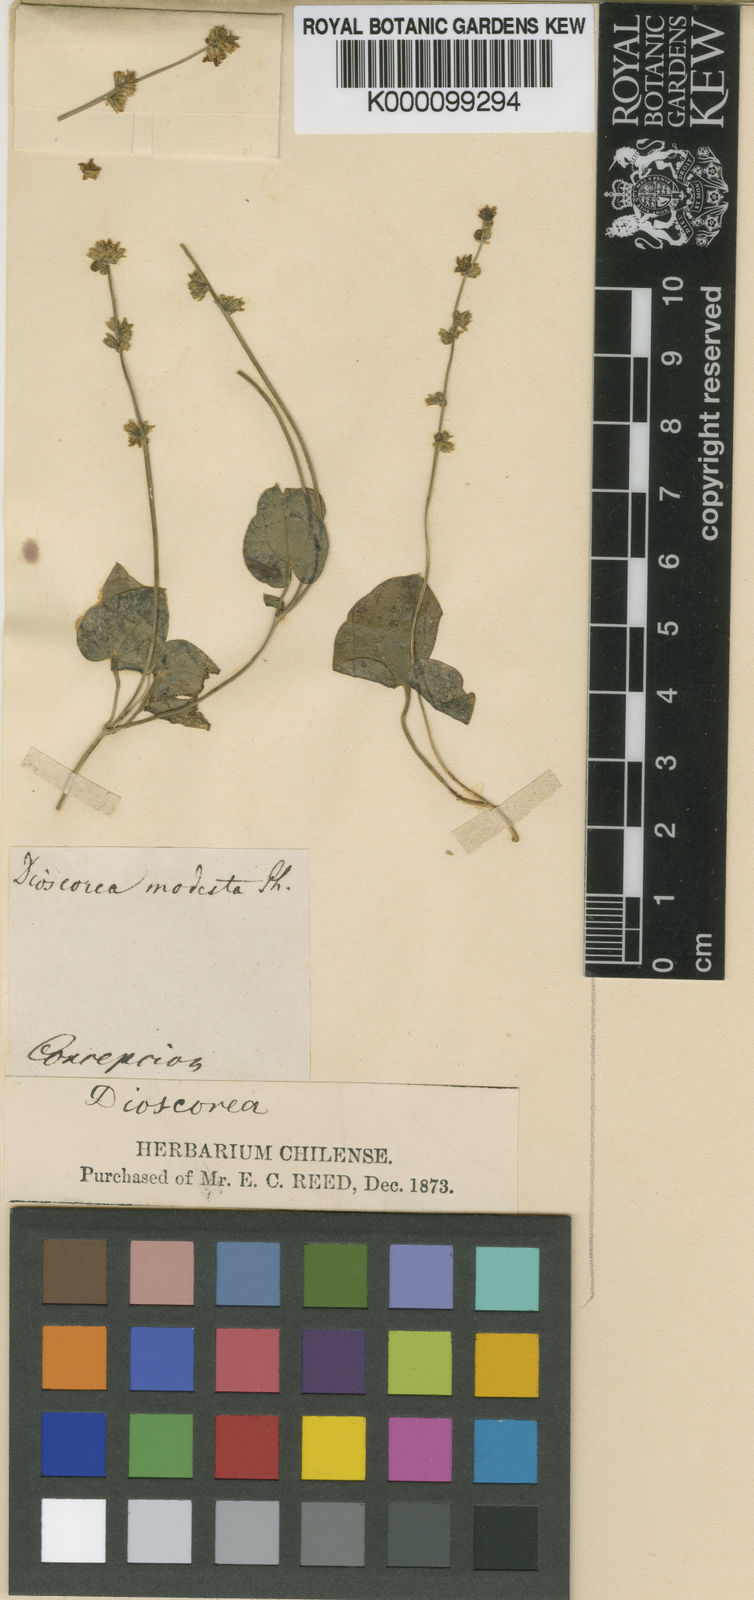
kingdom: Plantae
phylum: Tracheophyta
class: Liliopsida
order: Dioscoreales
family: Dioscoreaceae
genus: Dioscorea
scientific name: Dioscorea modesta
